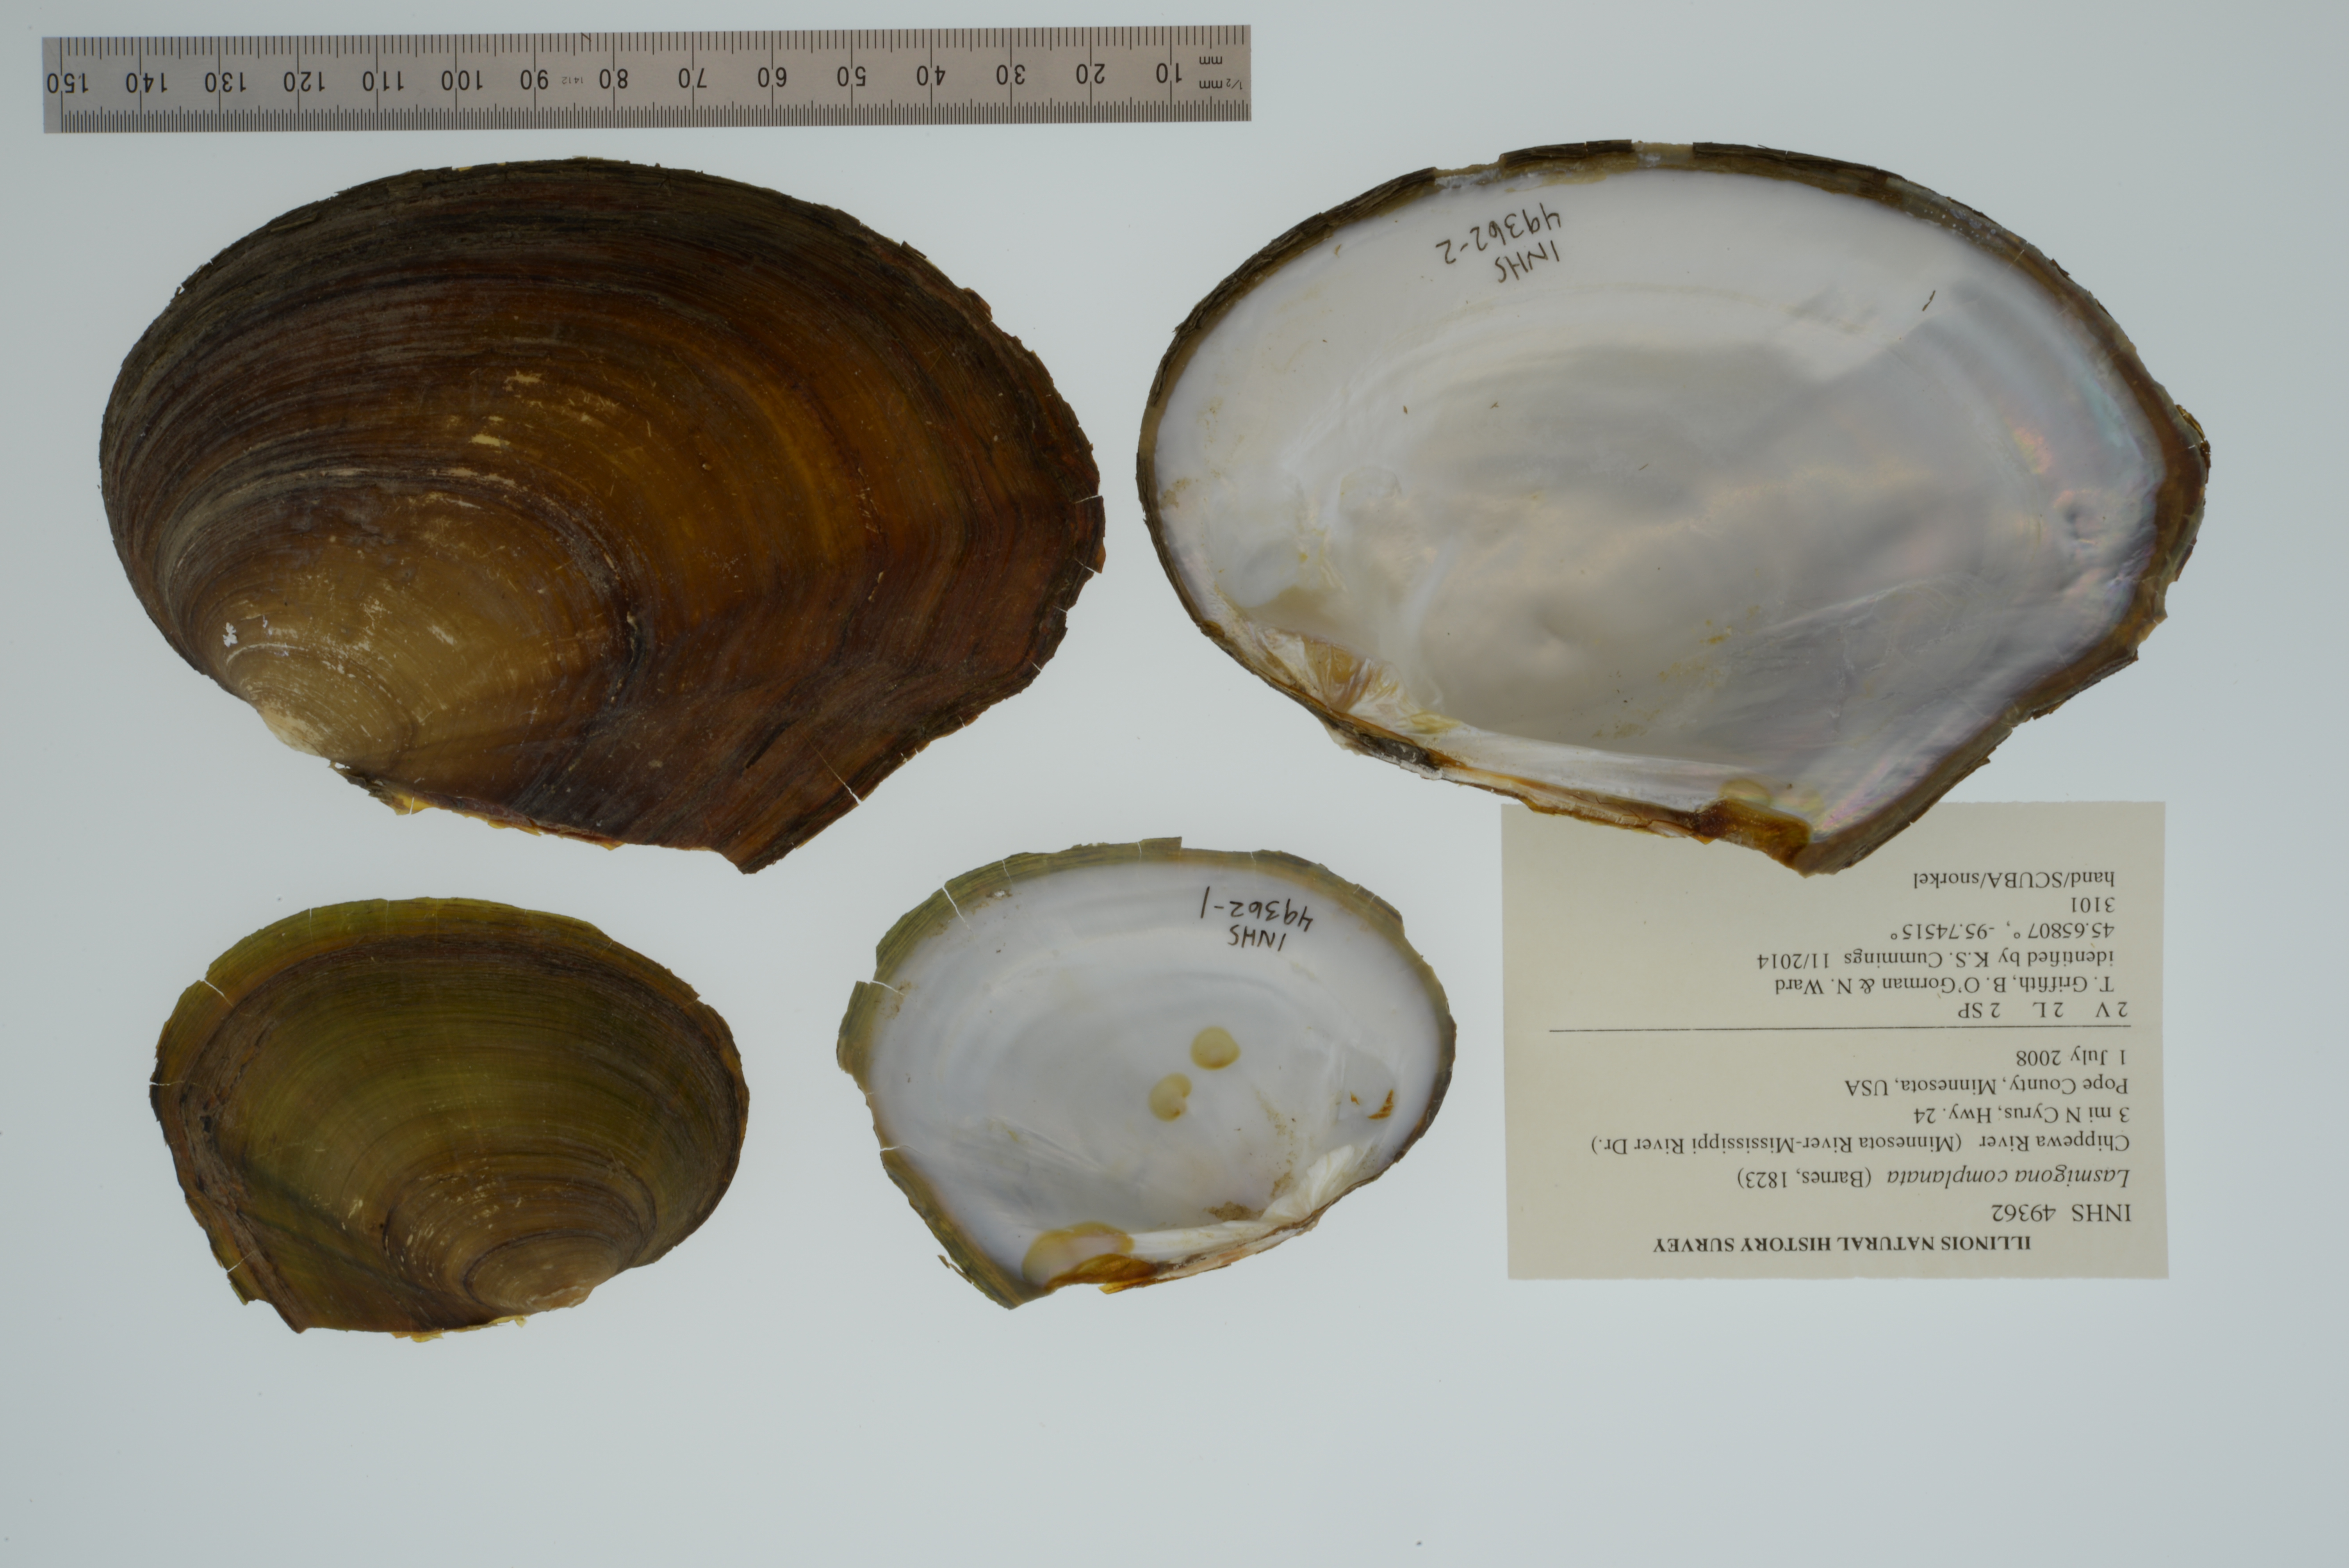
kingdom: Animalia
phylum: Mollusca
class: Bivalvia
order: Unionida
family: Unionidae
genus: Lasmigona
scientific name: Lasmigona complanata
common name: White heelsplitter
